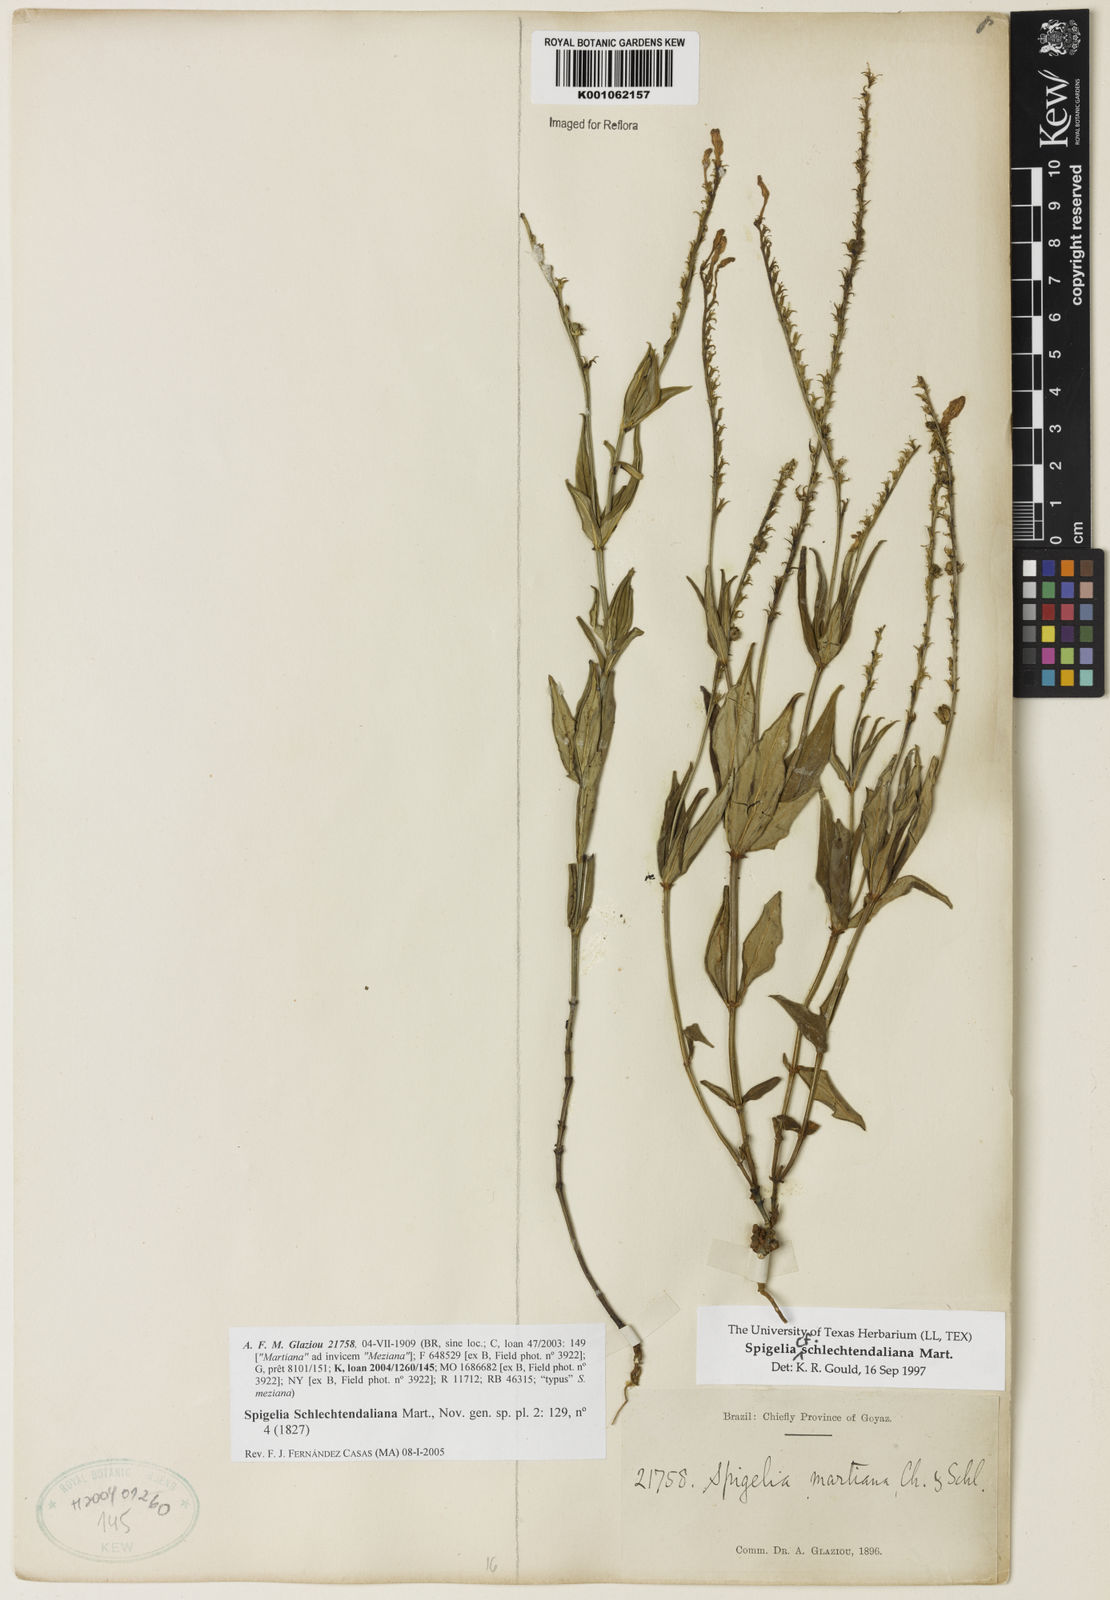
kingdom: Plantae
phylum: Tracheophyta
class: Magnoliopsida
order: Gentianales
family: Loganiaceae
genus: Spigelia
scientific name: Spigelia schlechtendaliana
